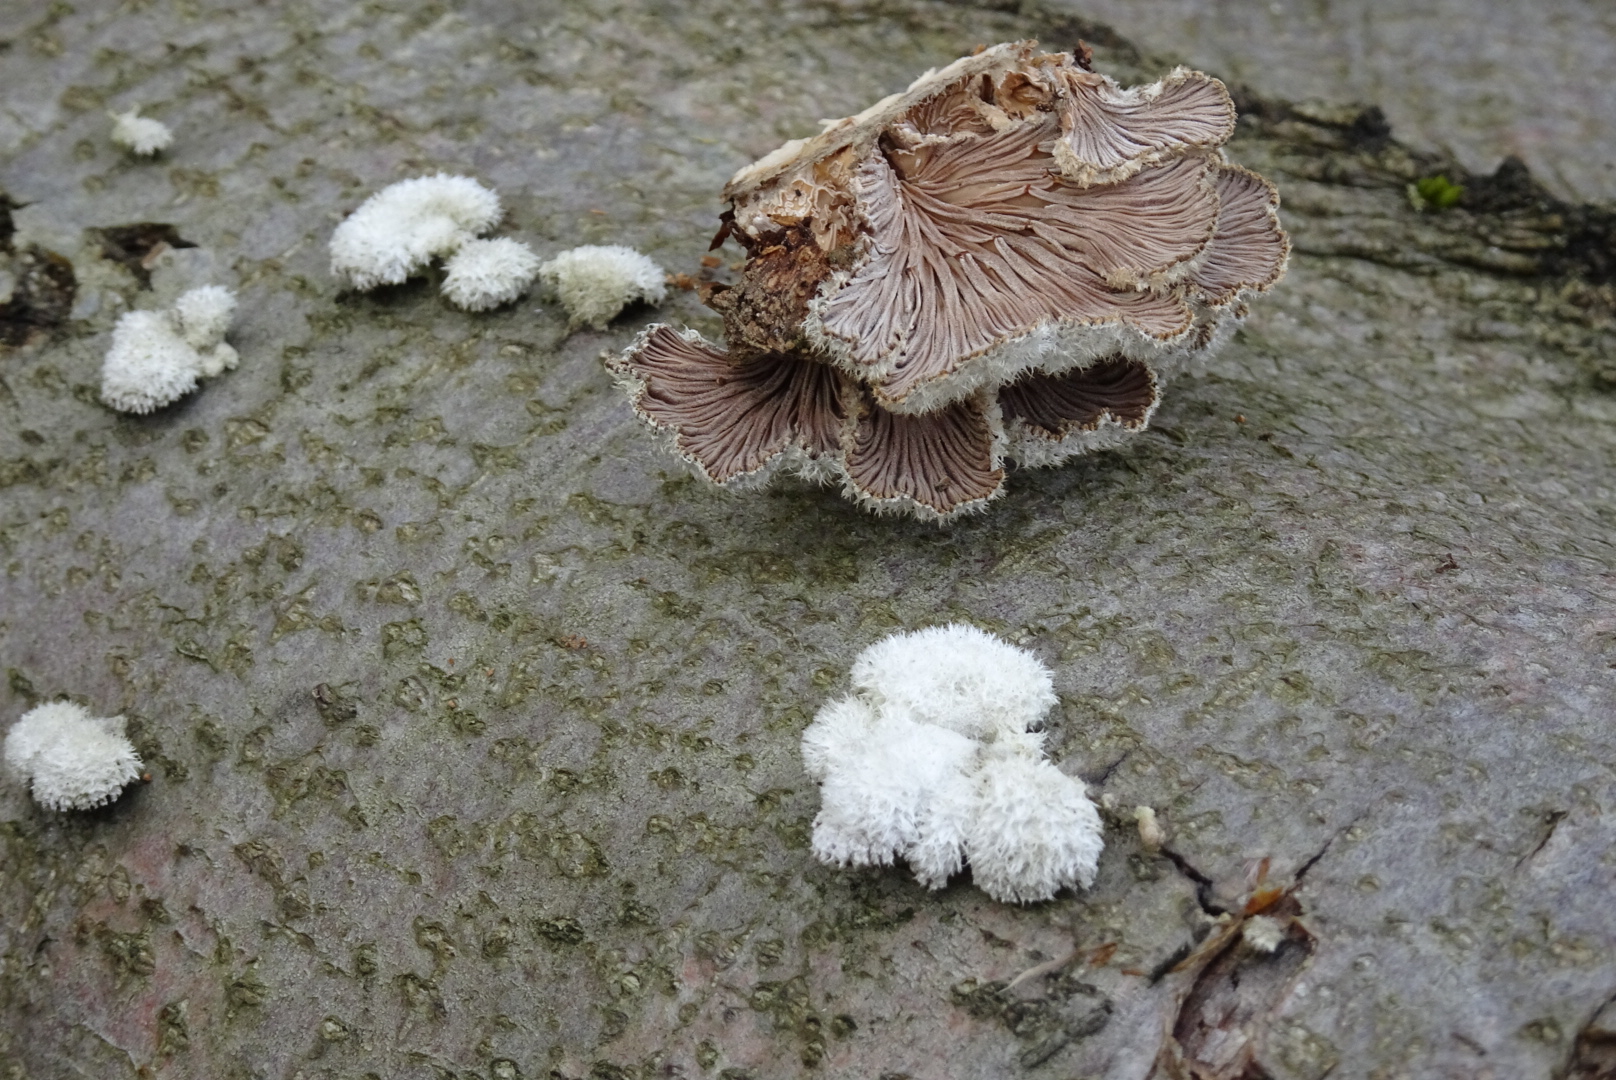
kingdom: Fungi
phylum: Basidiomycota
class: Agaricomycetes
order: Agaricales
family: Schizophyllaceae
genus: Schizophyllum
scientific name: Schizophyllum commune
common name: kløvblad
